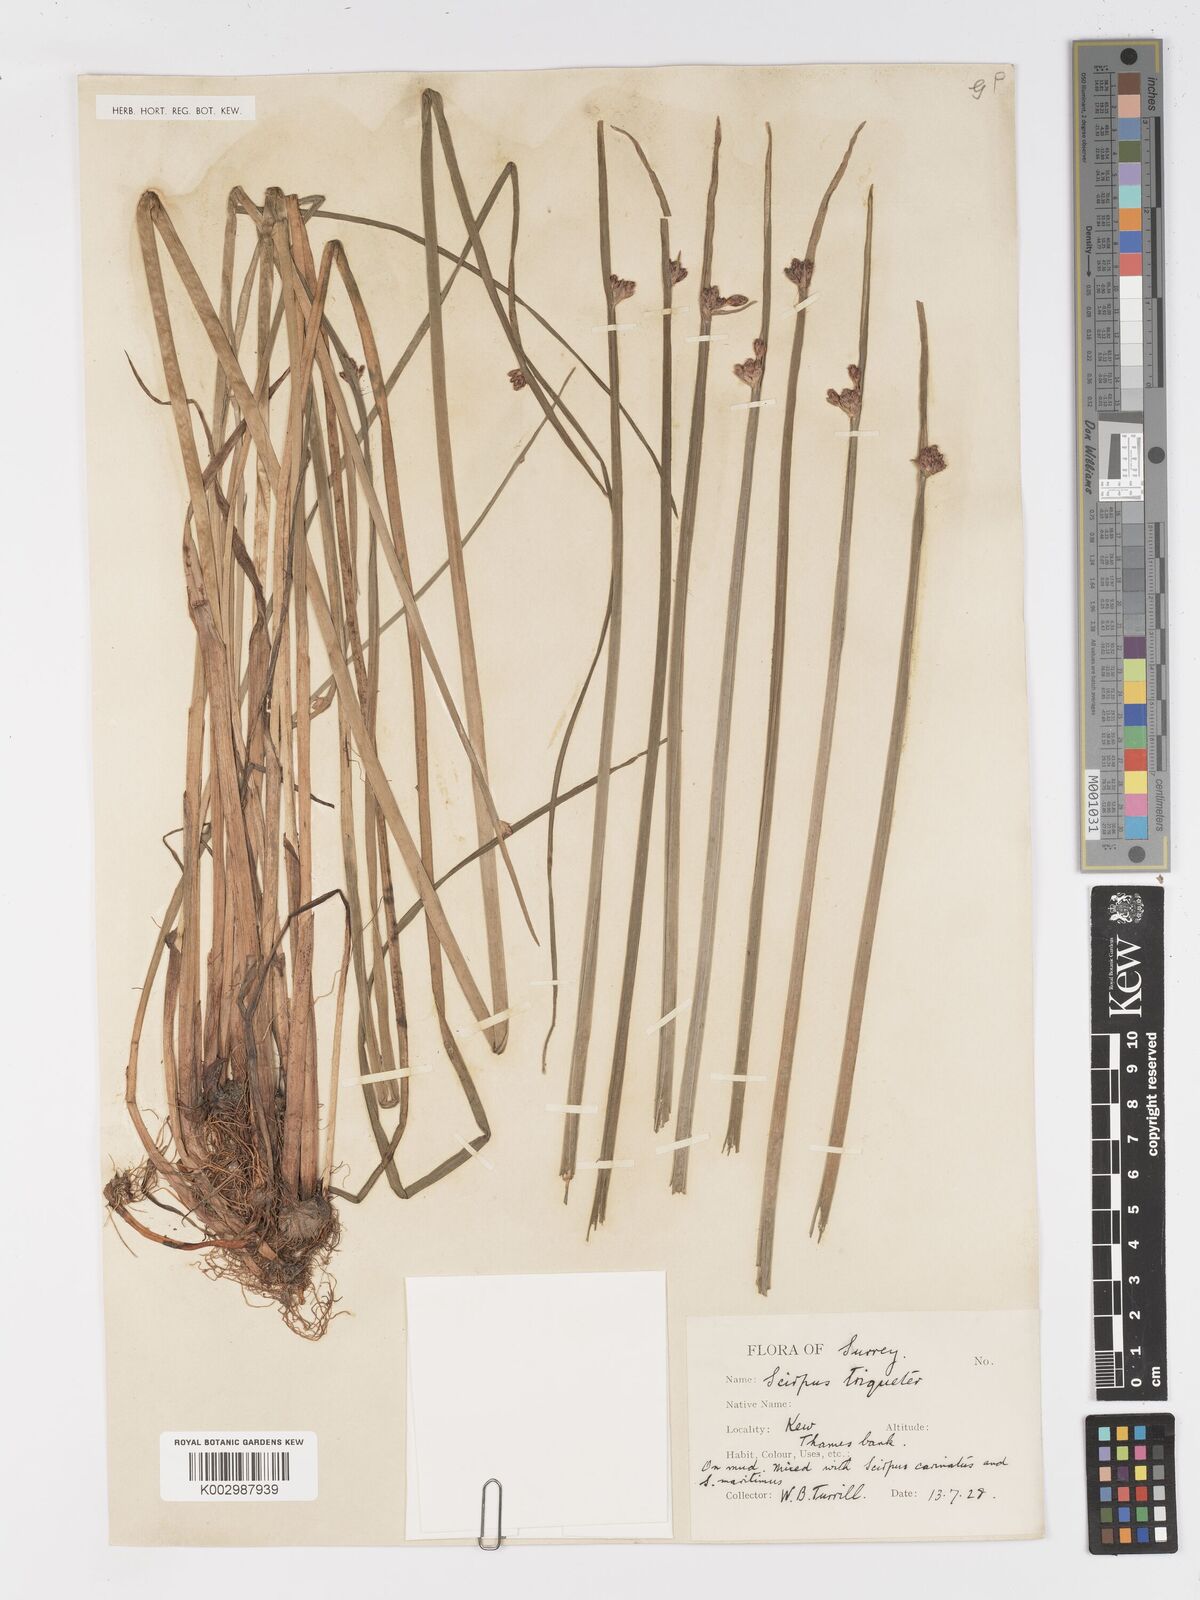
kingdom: Plantae
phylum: Tracheophyta
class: Liliopsida
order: Poales
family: Cyperaceae
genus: Schoenoplectus
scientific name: Schoenoplectus triqueter
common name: Triangular club-rush
